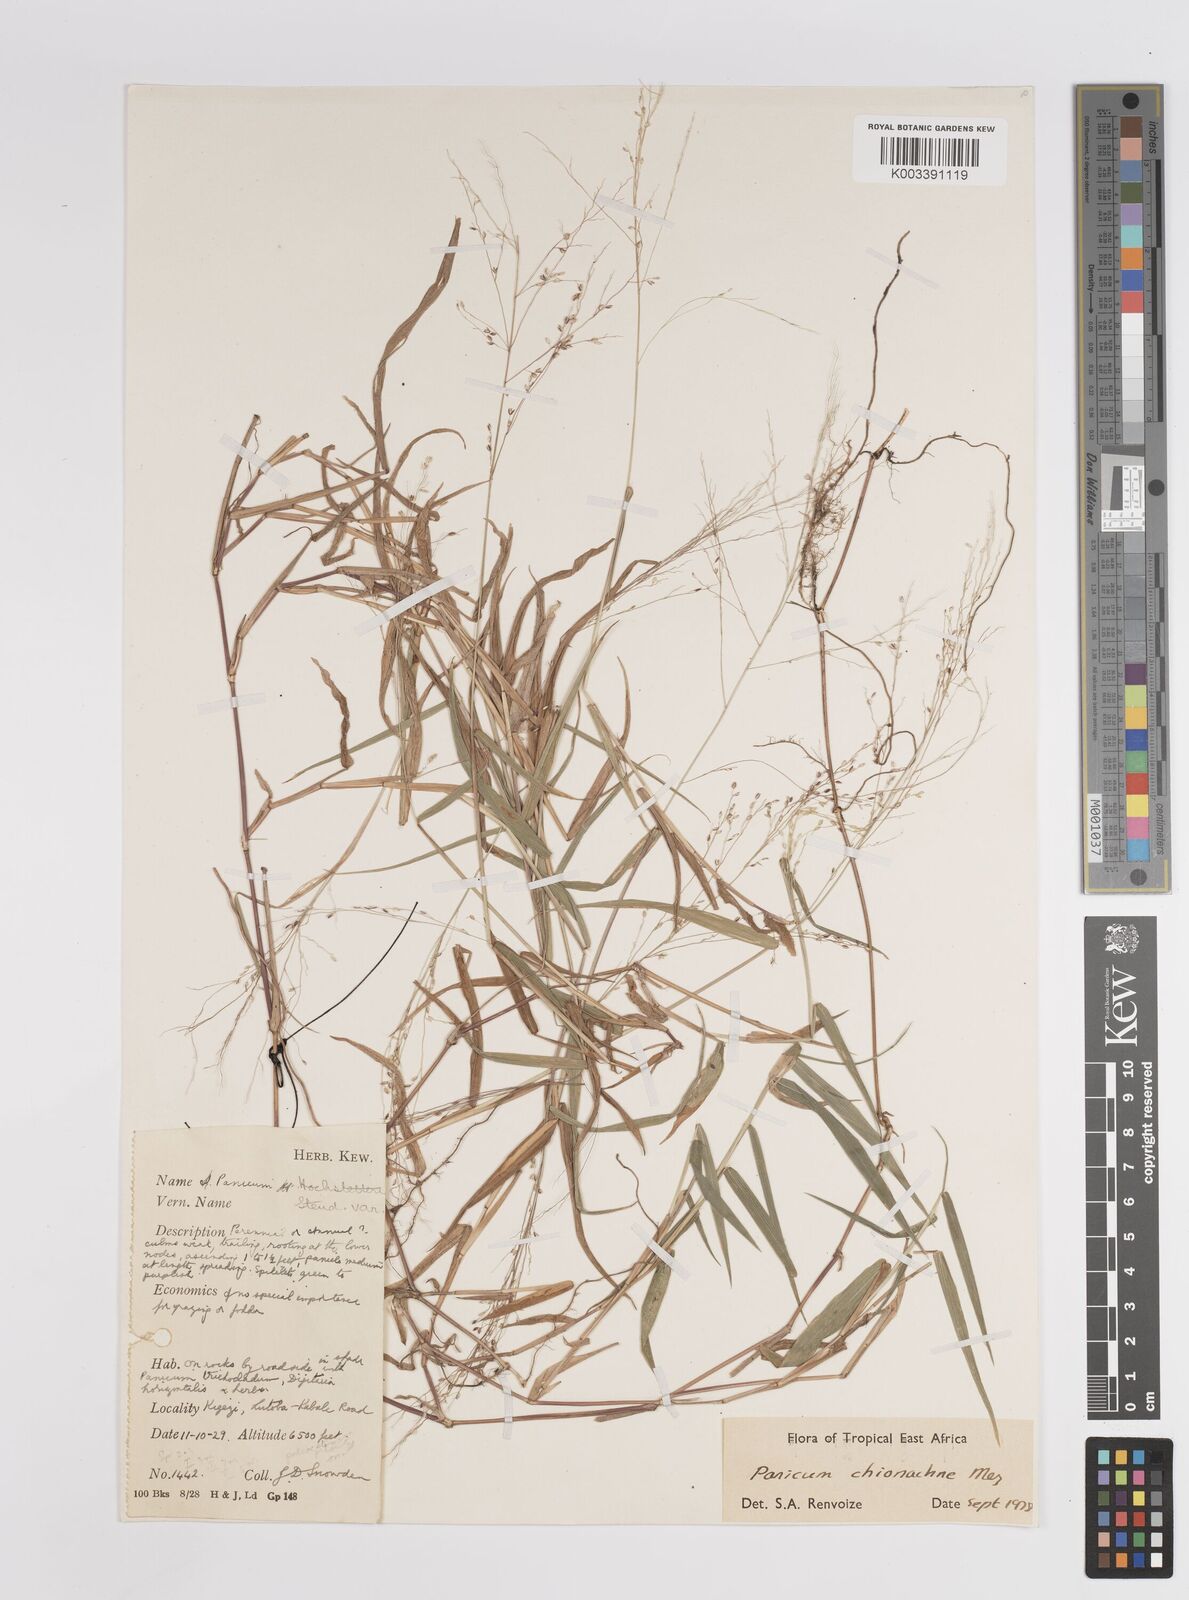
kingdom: Plantae
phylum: Tracheophyta
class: Liliopsida
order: Poales
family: Poaceae
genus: Panicum
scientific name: Panicum chionachne
